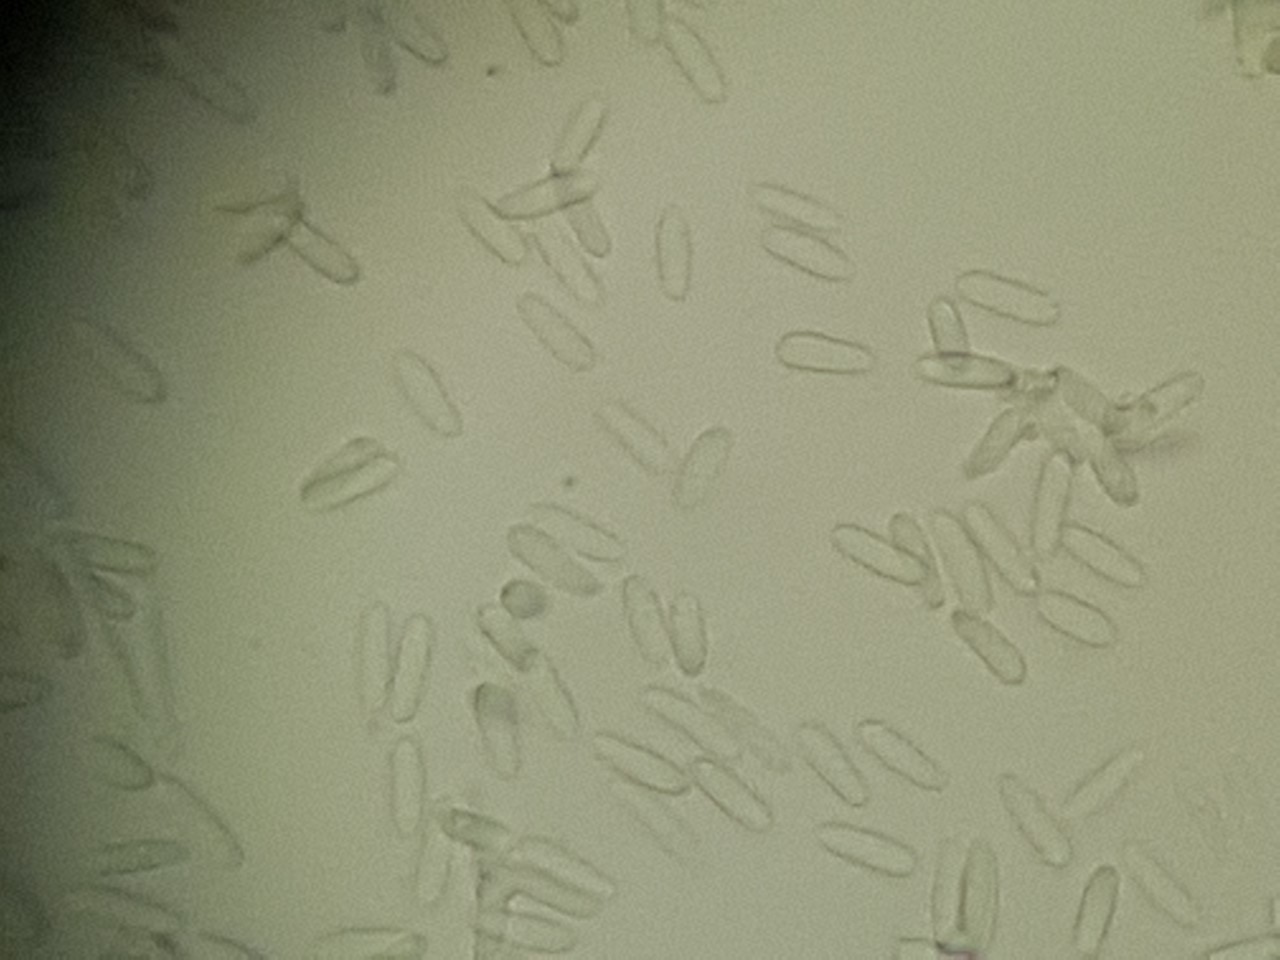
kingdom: Fungi
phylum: Ascomycota
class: Sordariomycetes
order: Hypocreales
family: Nectriaceae
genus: Sarcopodium
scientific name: Sarcopodium circinatum
